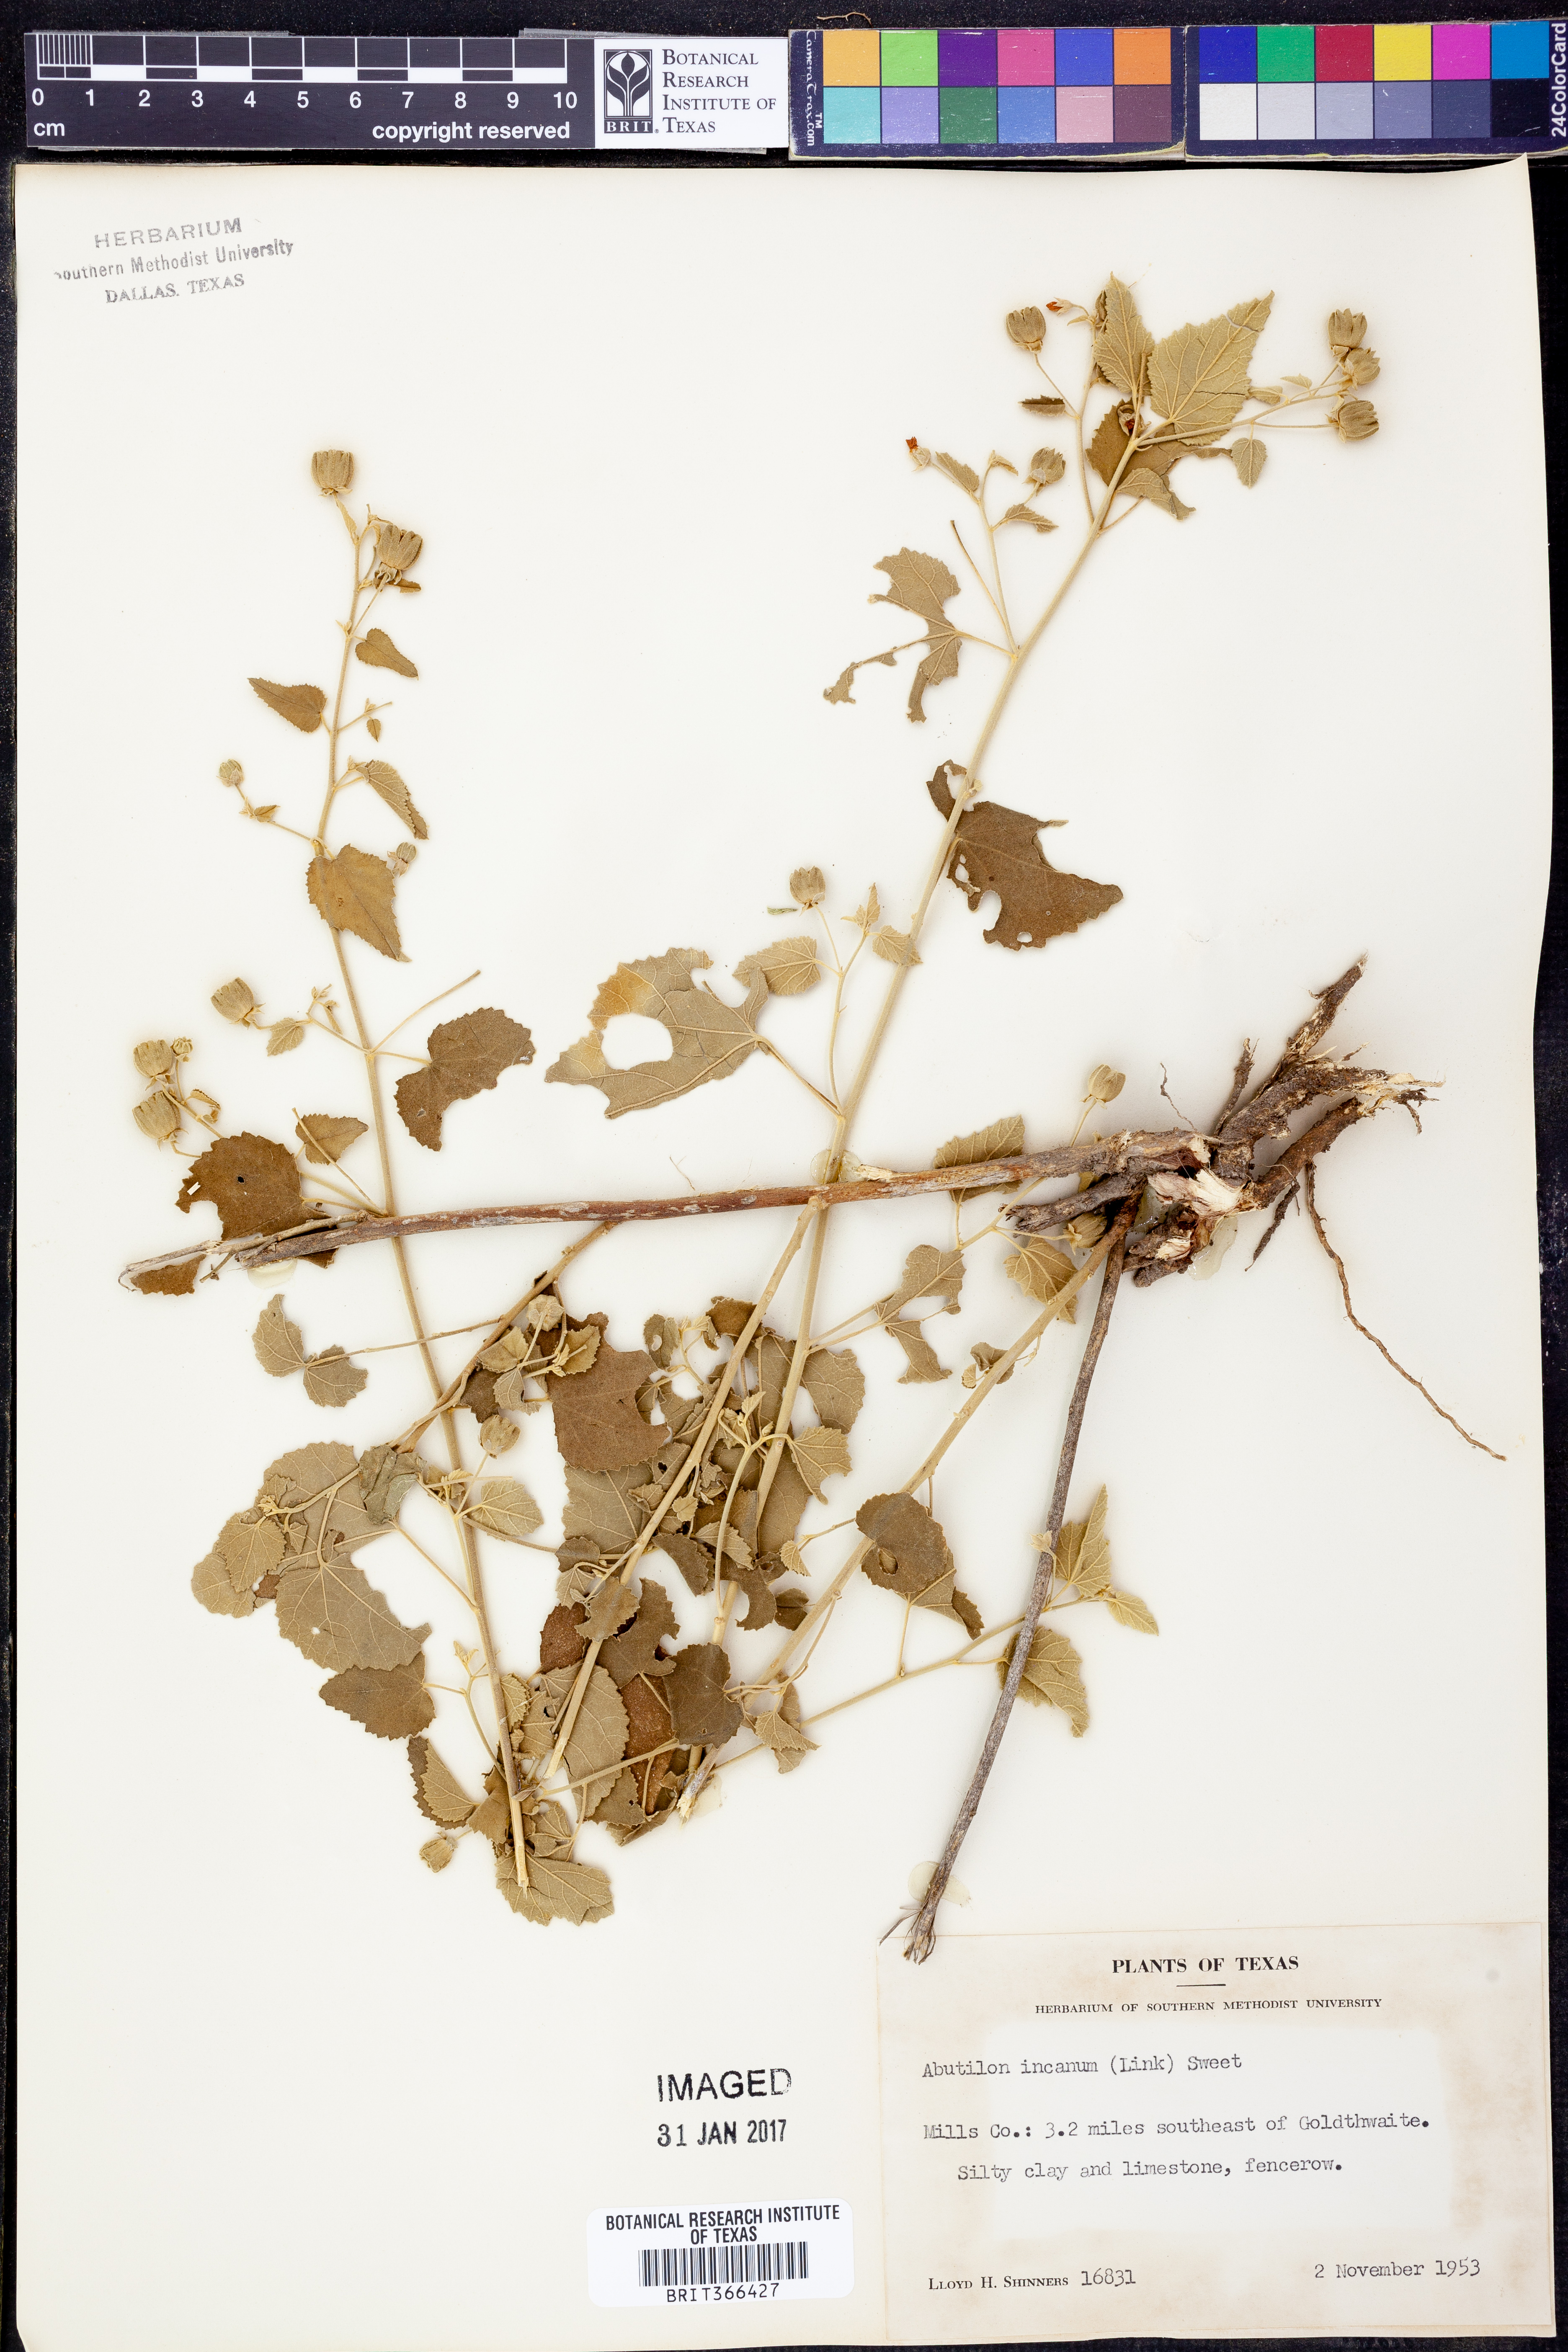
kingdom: Plantae
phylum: Tracheophyta
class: Magnoliopsida
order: Malvales
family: Malvaceae
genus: Abutilon
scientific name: Abutilon incanum
